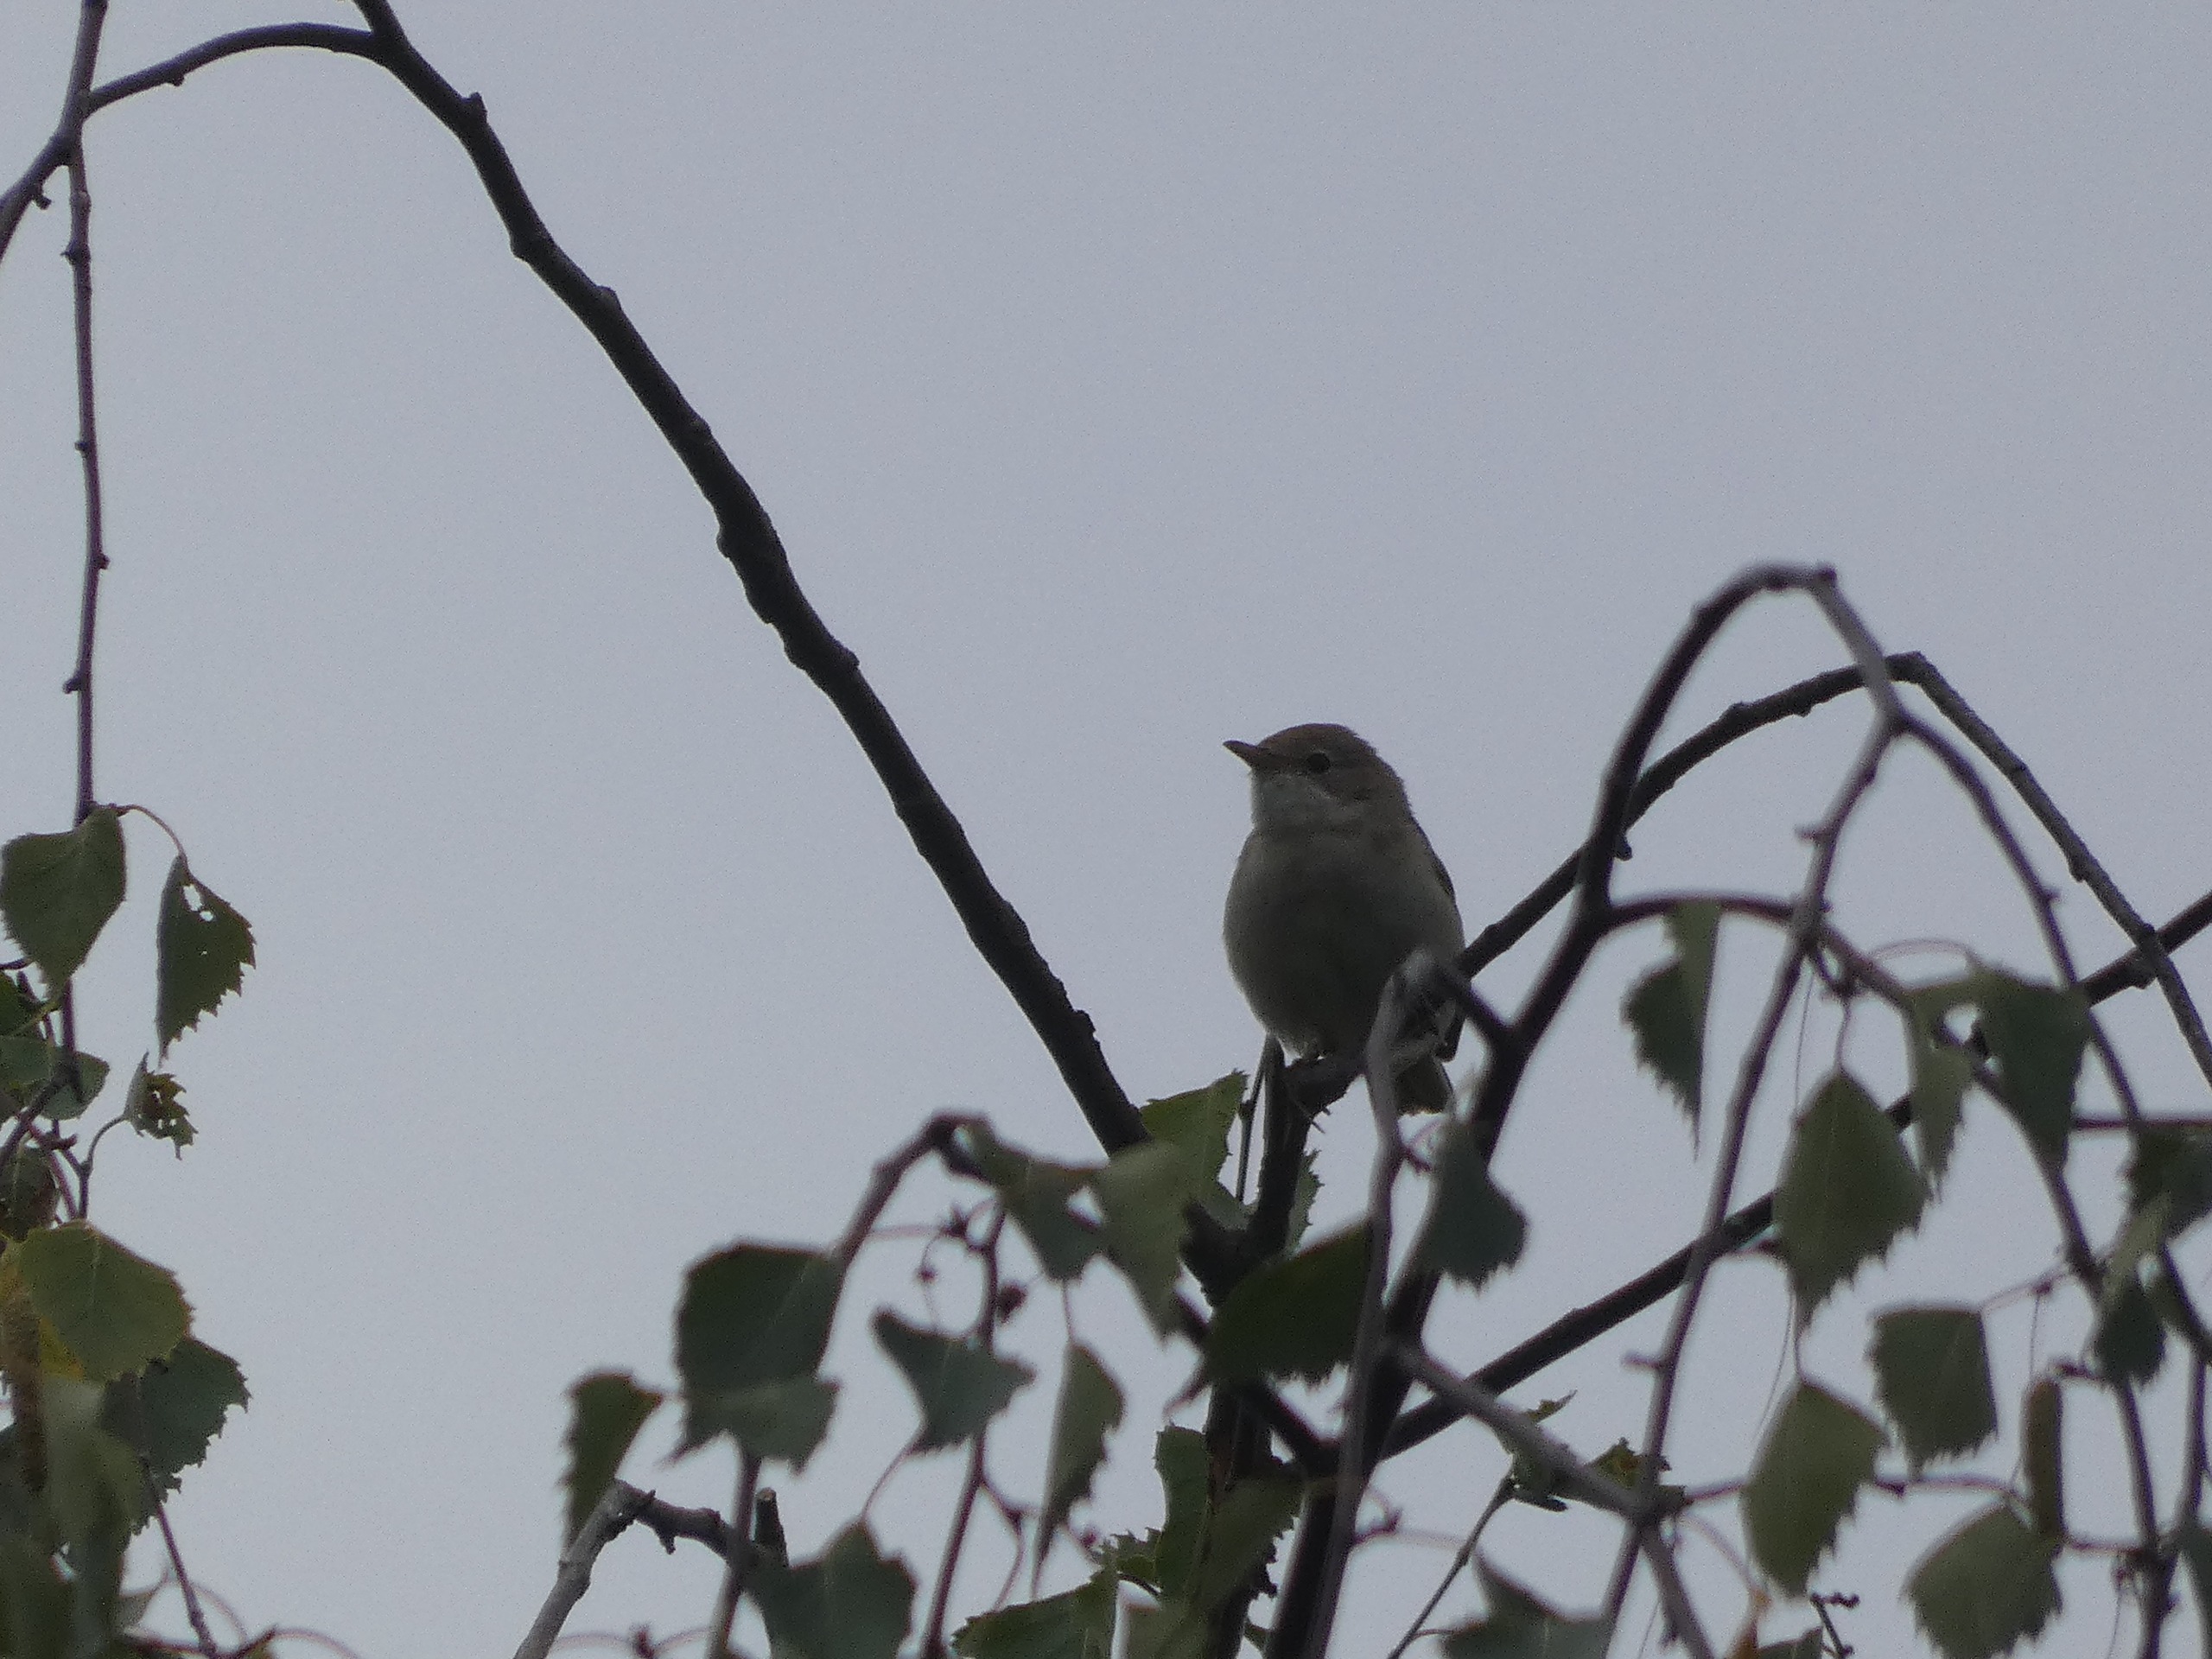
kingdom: Animalia
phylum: Chordata
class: Aves
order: Passeriformes
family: Sylviidae
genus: Sylvia
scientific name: Sylvia communis
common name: Tornsanger
